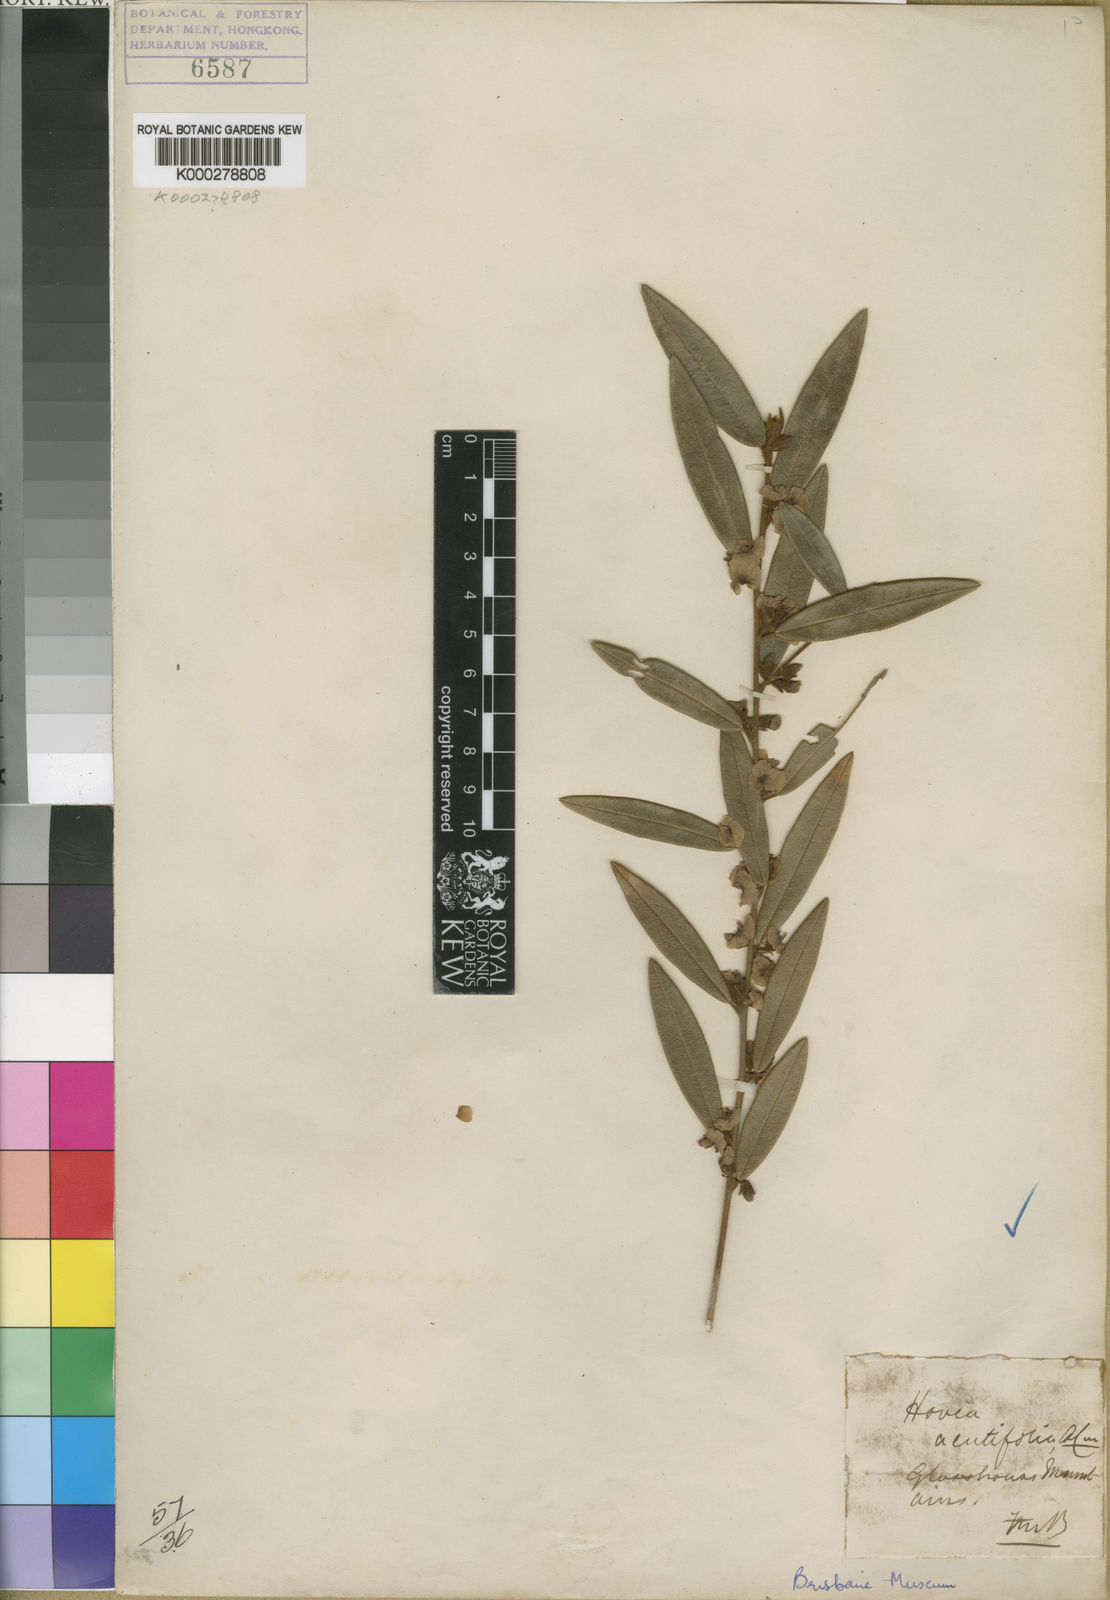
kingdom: Plantae
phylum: Tracheophyta
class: Magnoliopsida
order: Fabales
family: Fabaceae
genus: Hovea
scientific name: Hovea acutifolia
